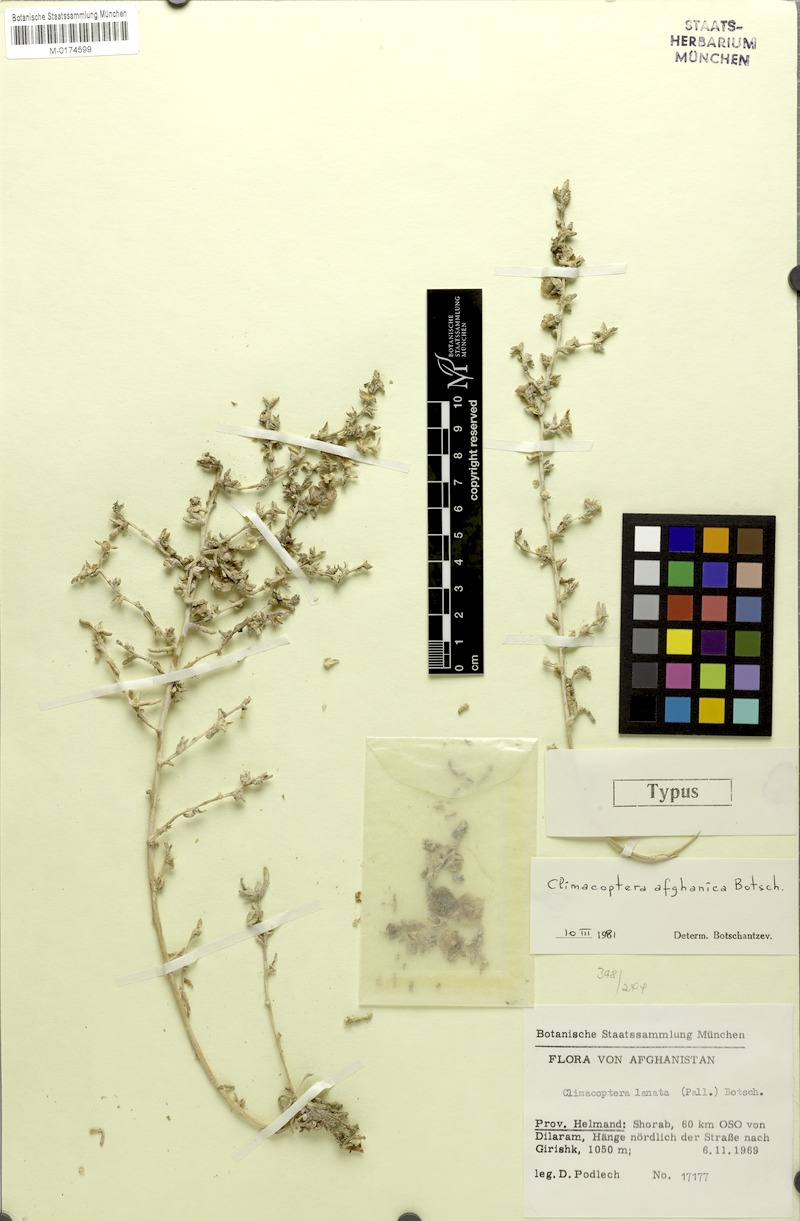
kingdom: Plantae
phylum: Tracheophyta
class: Magnoliopsida
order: Caryophyllales
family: Amaranthaceae
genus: Climacoptera
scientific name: Climacoptera longipistillata
